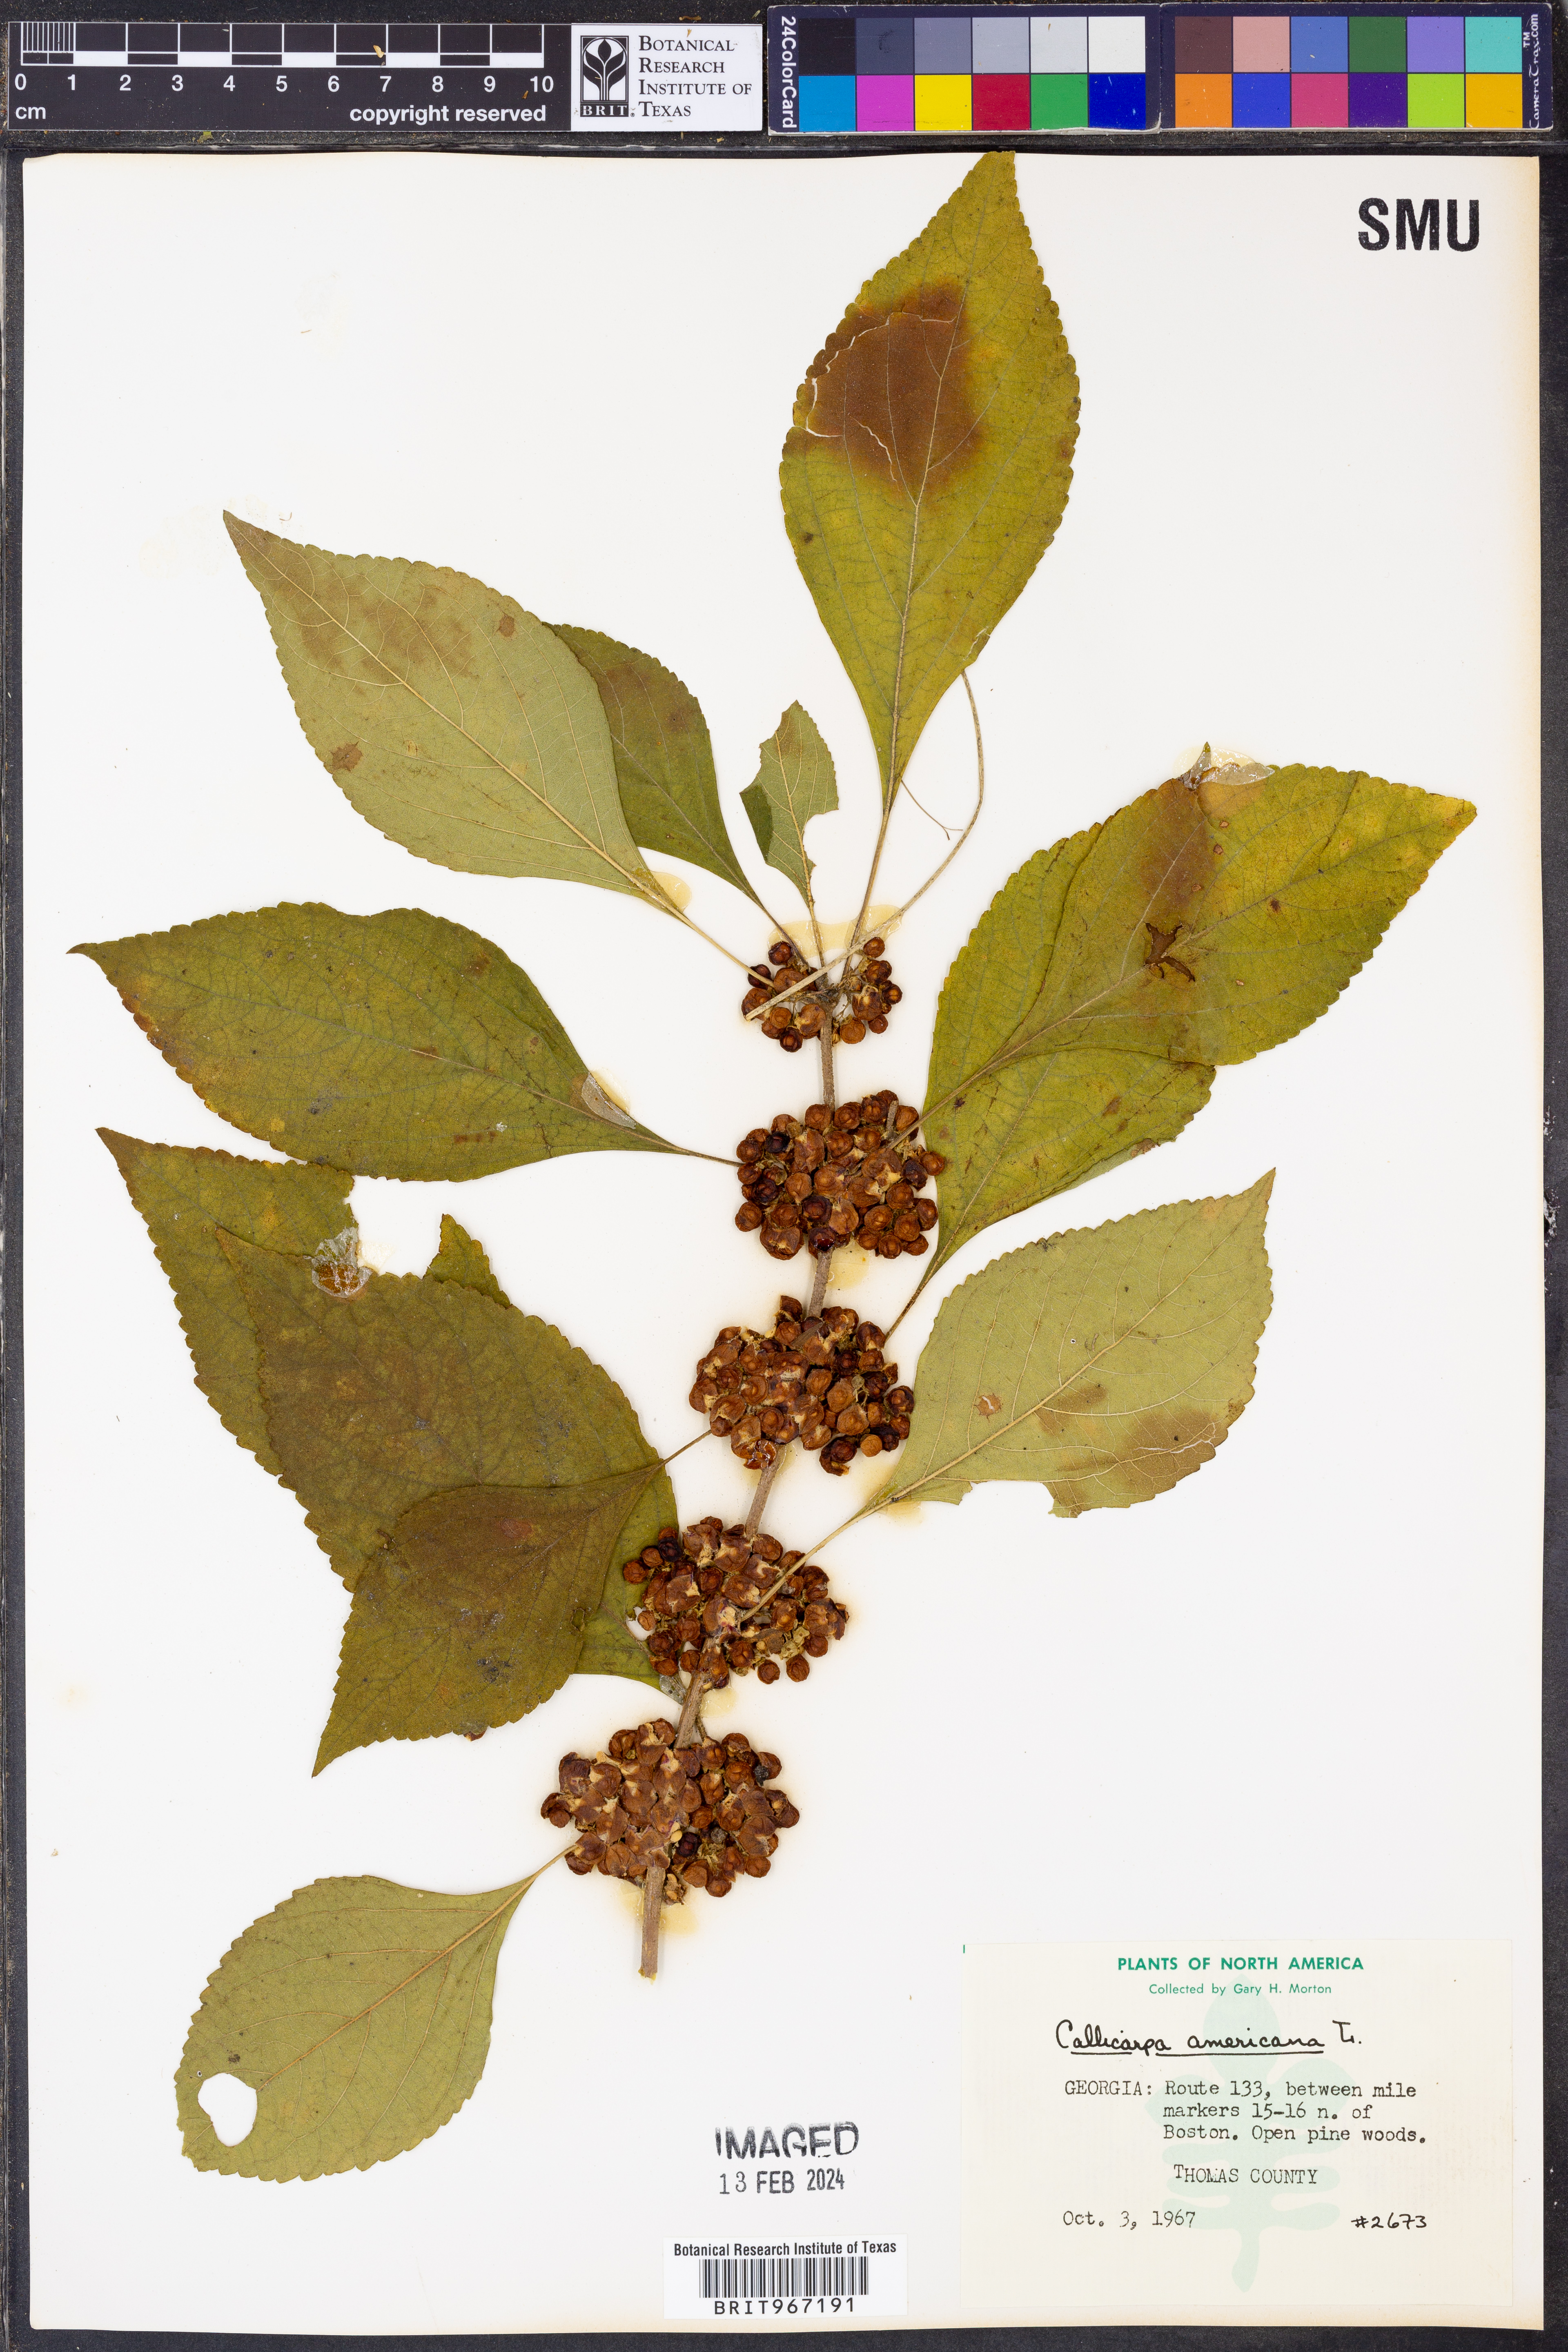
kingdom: Plantae
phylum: Tracheophyta
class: Magnoliopsida
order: Lamiales
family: Lamiaceae
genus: Callicarpa
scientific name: Callicarpa americana
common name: American beautyberry
